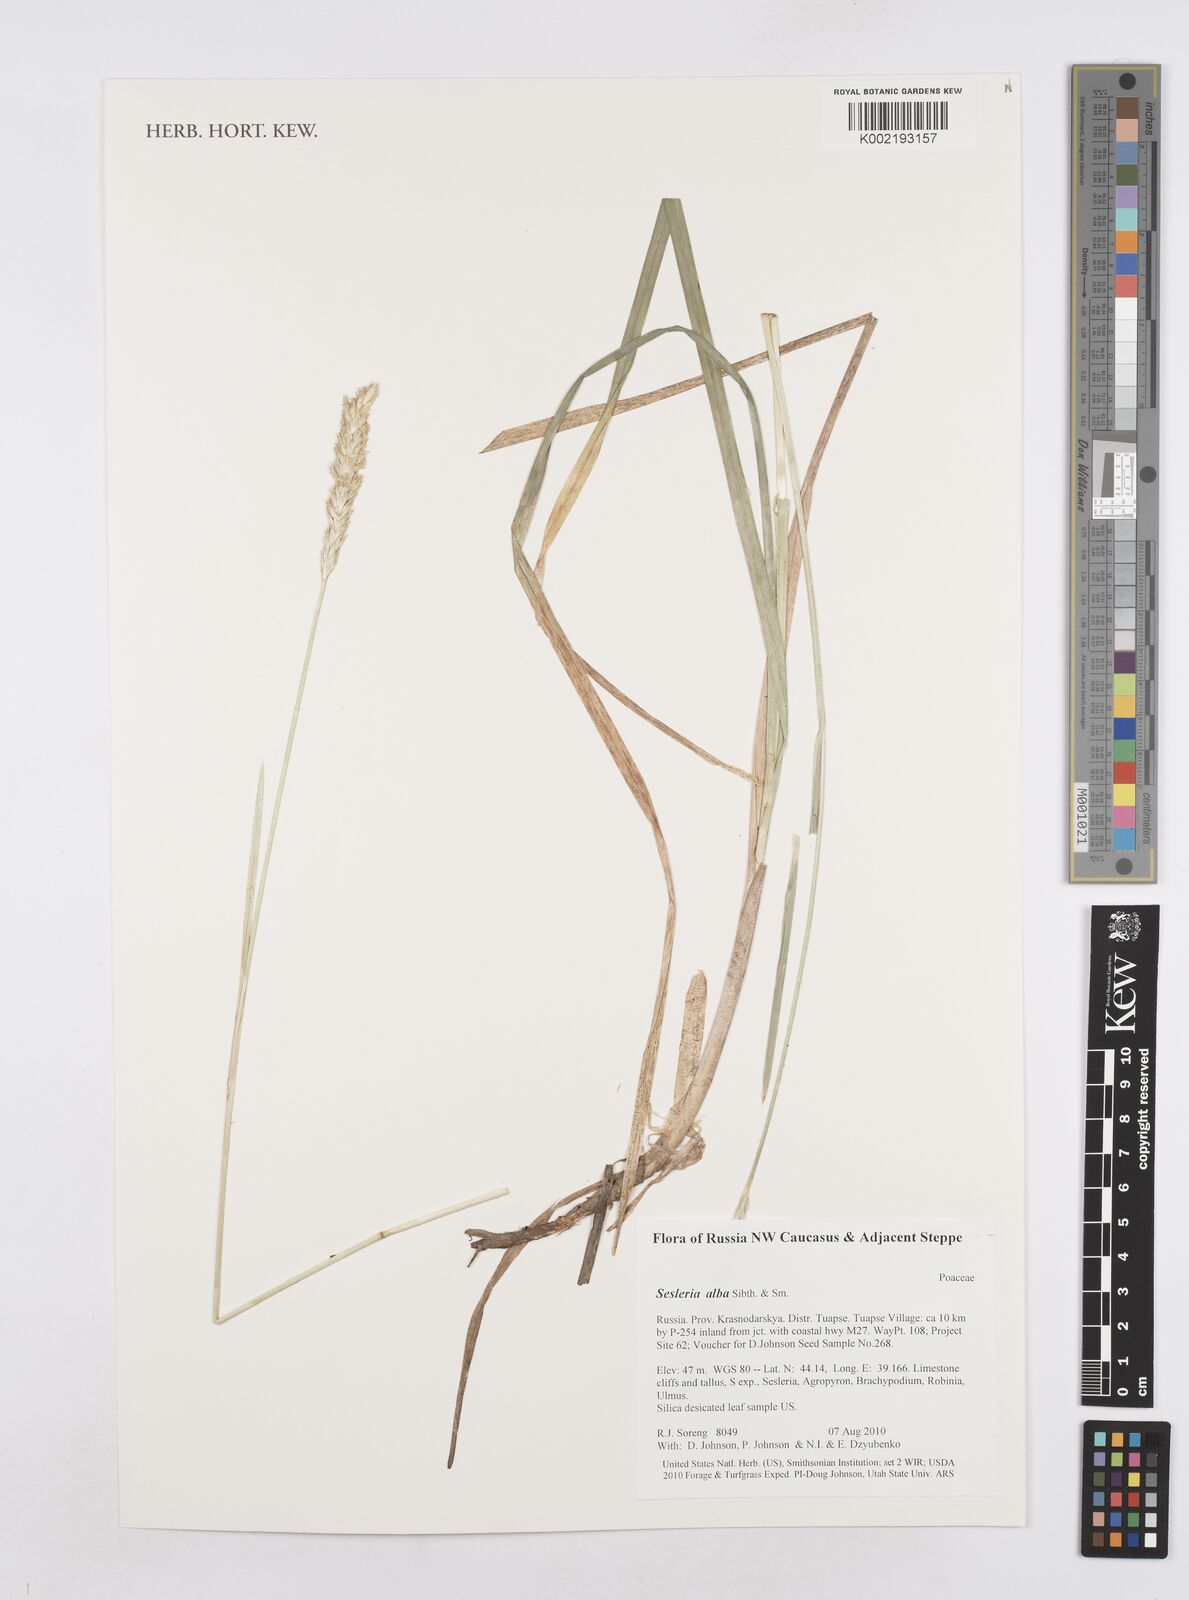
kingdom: Plantae
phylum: Tracheophyta
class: Liliopsida
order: Poales
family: Poaceae
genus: Sesleria
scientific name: Sesleria alba
